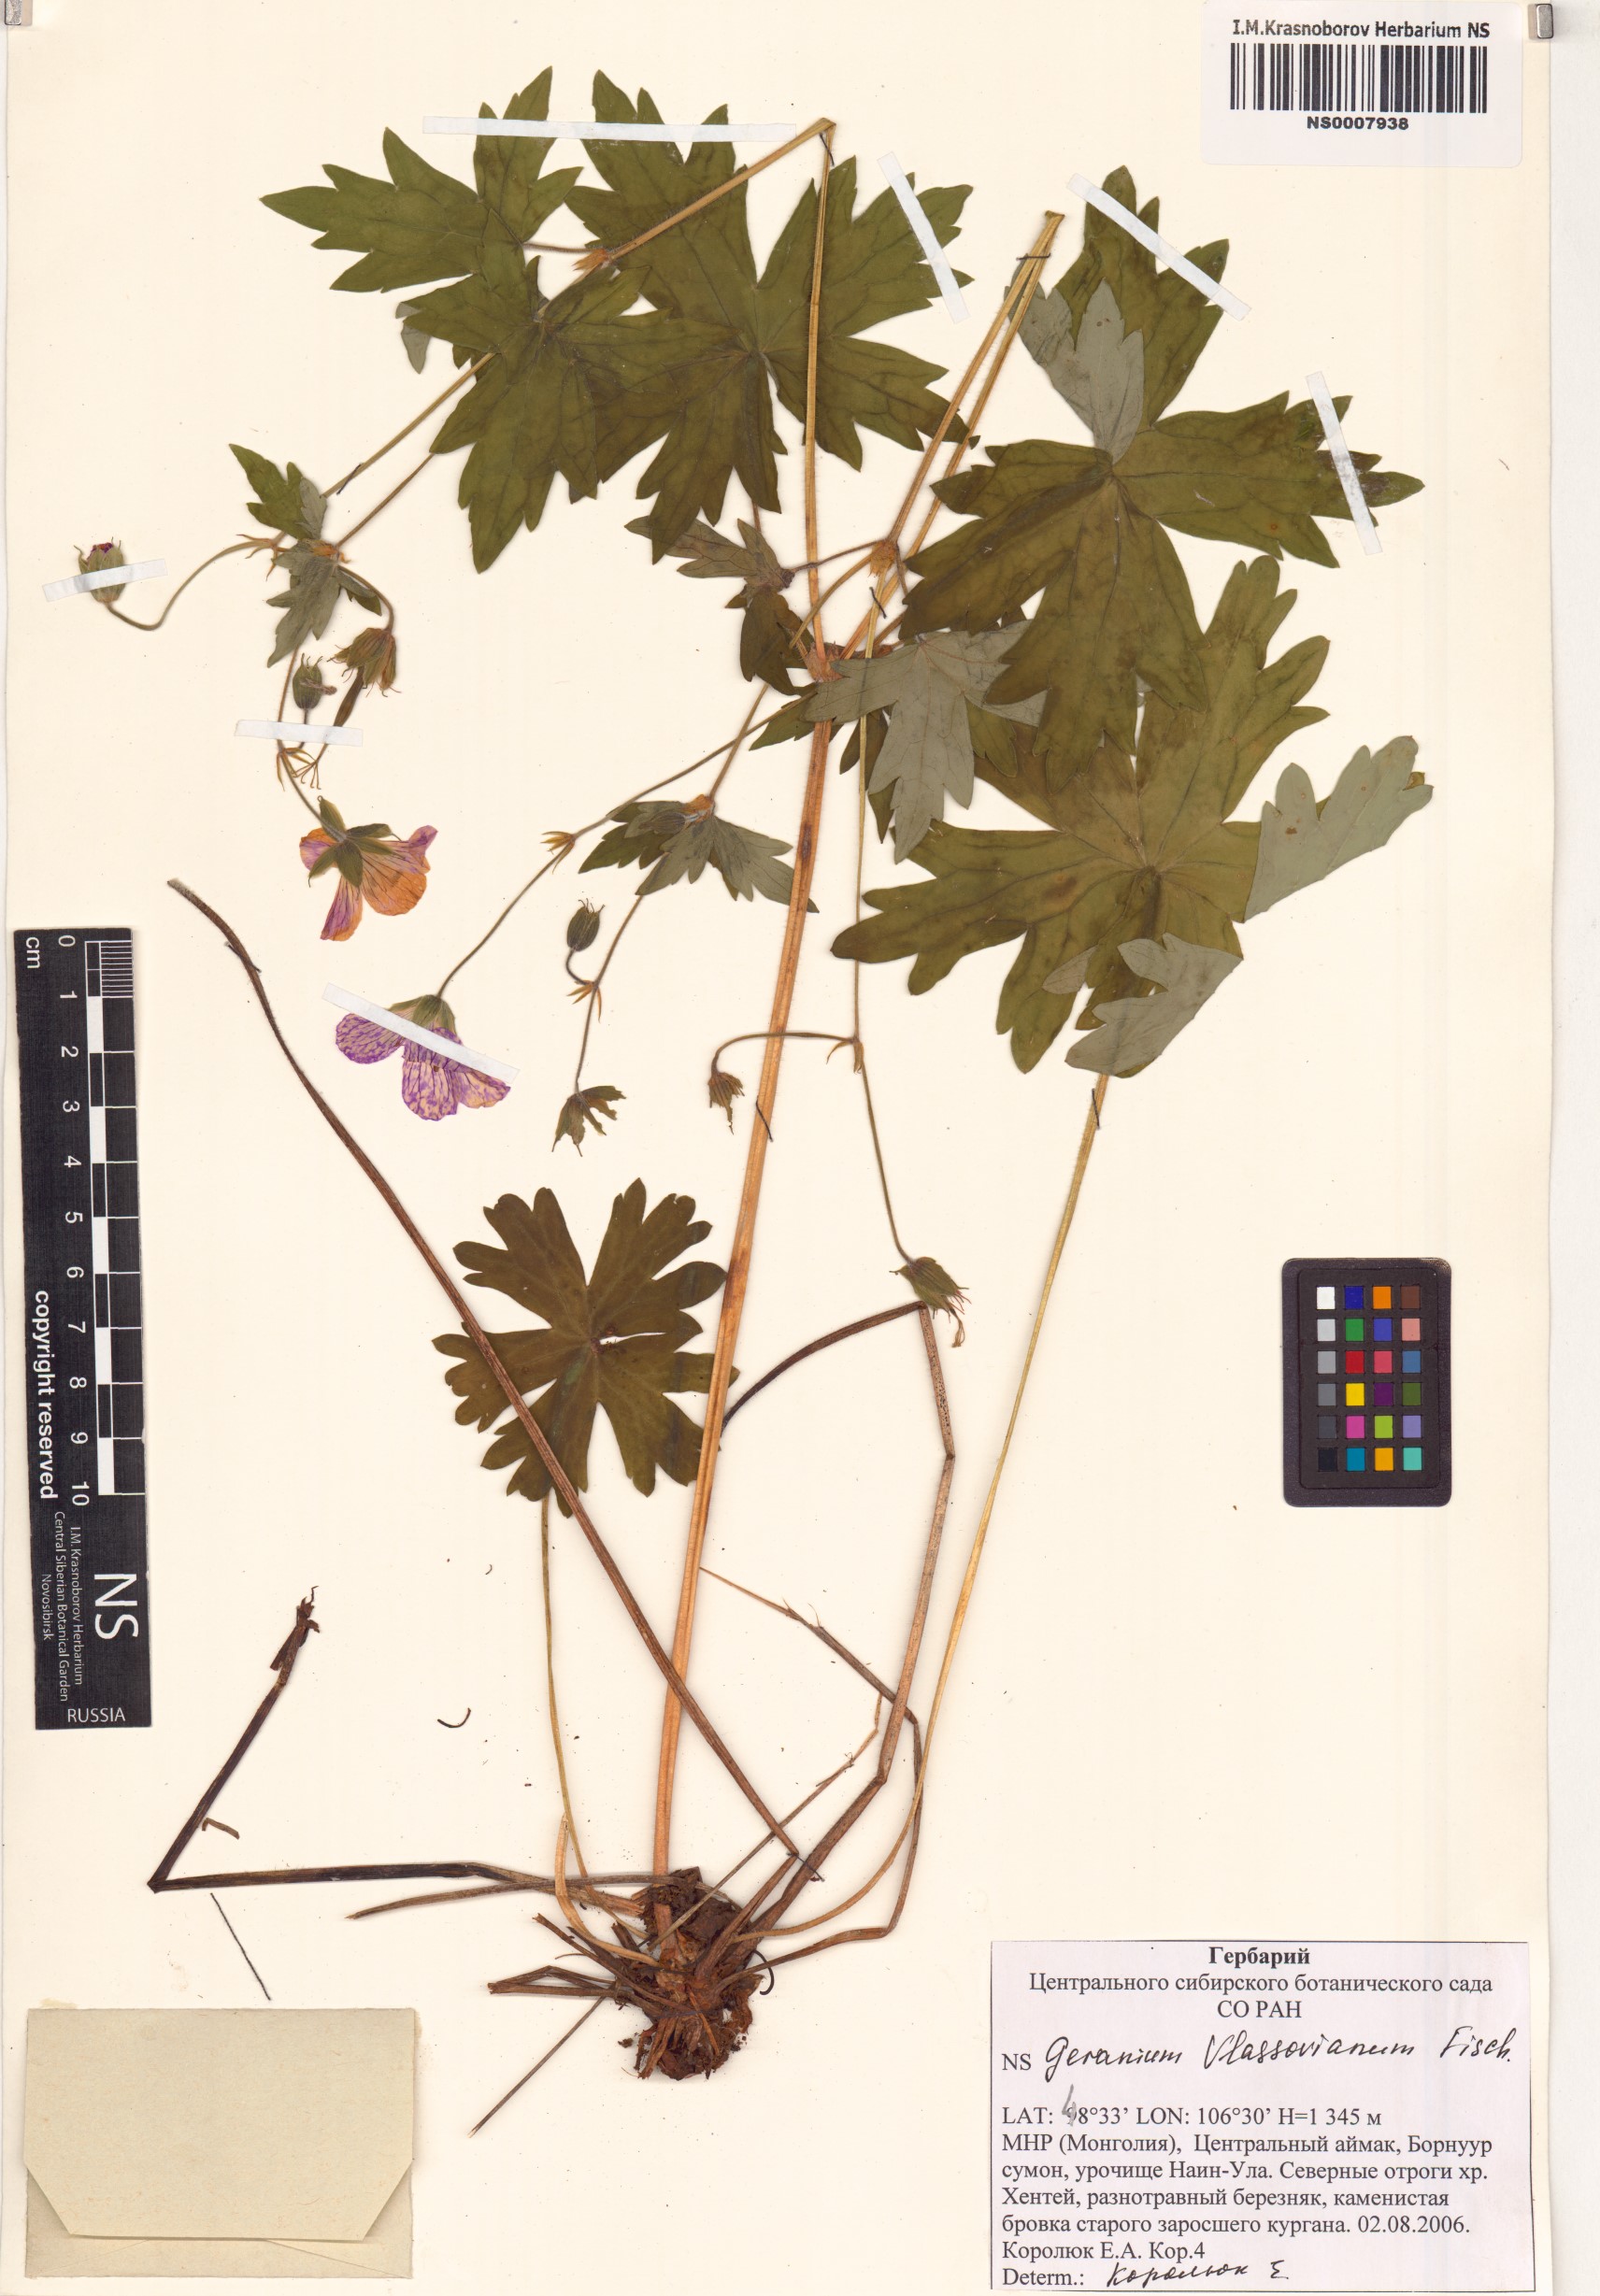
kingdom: Plantae
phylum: Tracheophyta
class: Magnoliopsida
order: Geraniales
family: Geraniaceae
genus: Geranium
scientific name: Geranium wlassovianum
